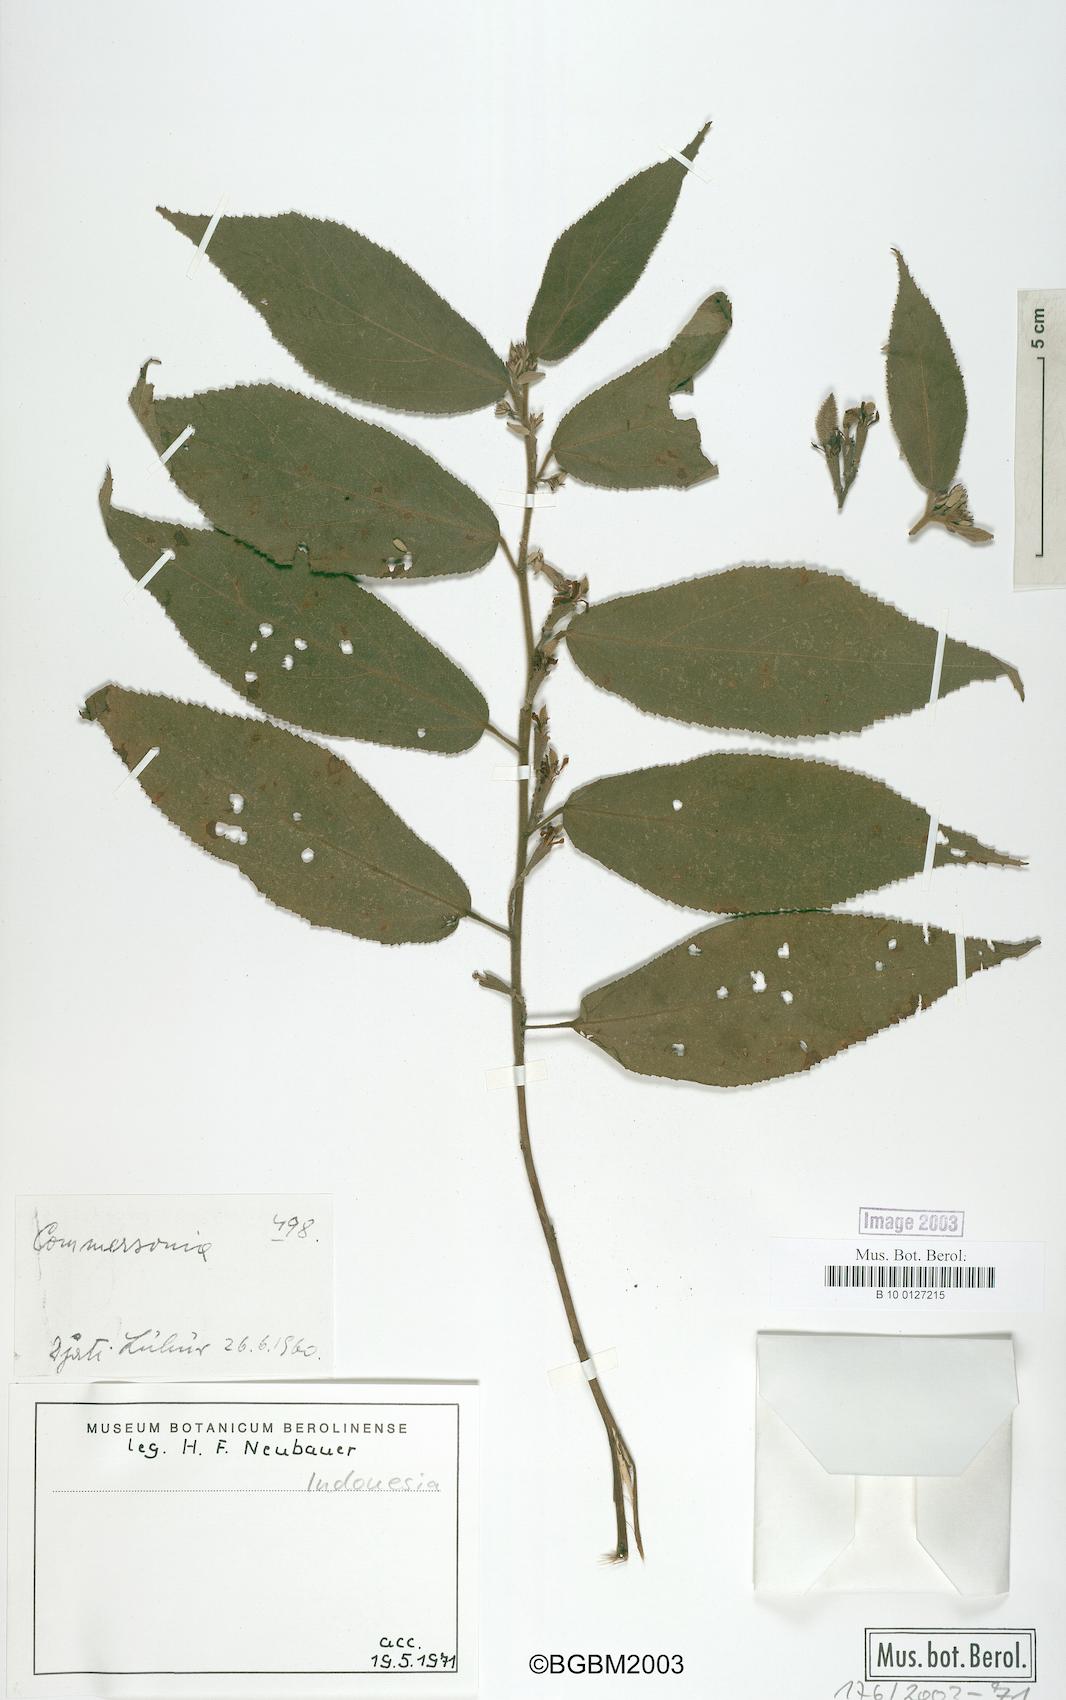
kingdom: Plantae
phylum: Tracheophyta
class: Magnoliopsida
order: Malvales
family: Malvaceae
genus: Commersonia
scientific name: Commersonia
